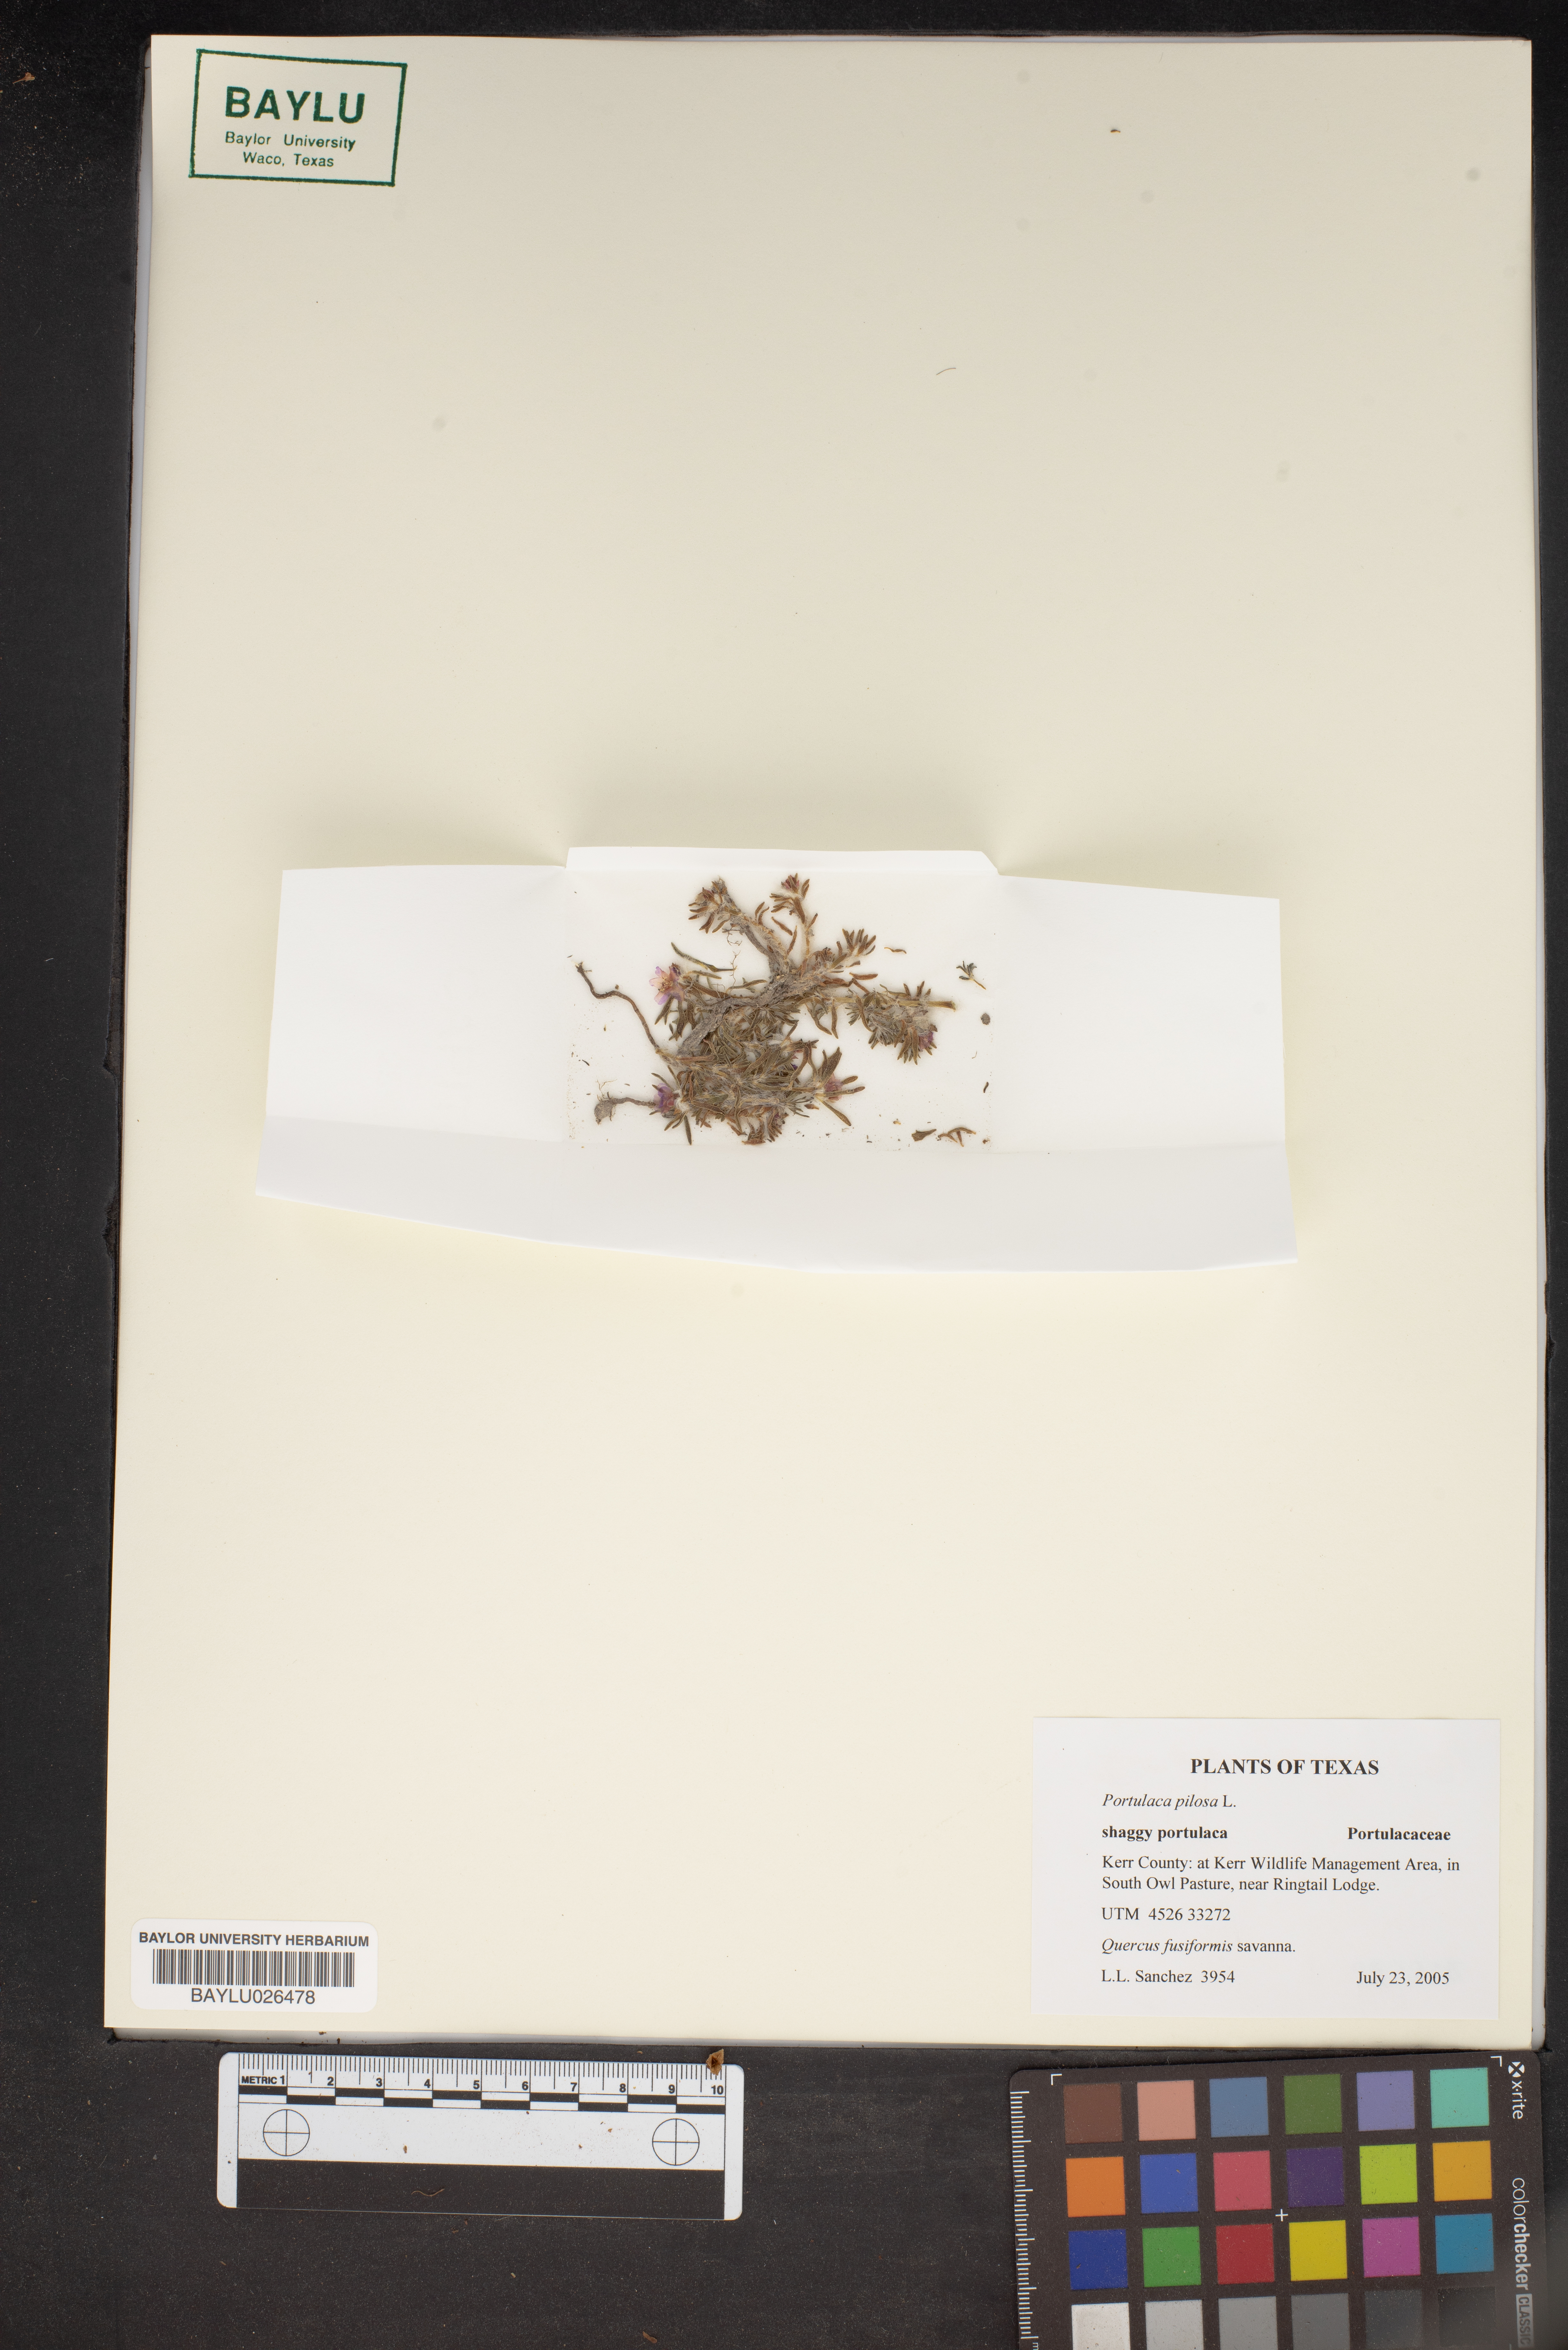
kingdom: Plantae
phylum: Tracheophyta
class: Magnoliopsida
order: Caryophyllales
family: Portulacaceae
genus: Portulaca
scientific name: Portulaca pilosa
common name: Kiss me quick
